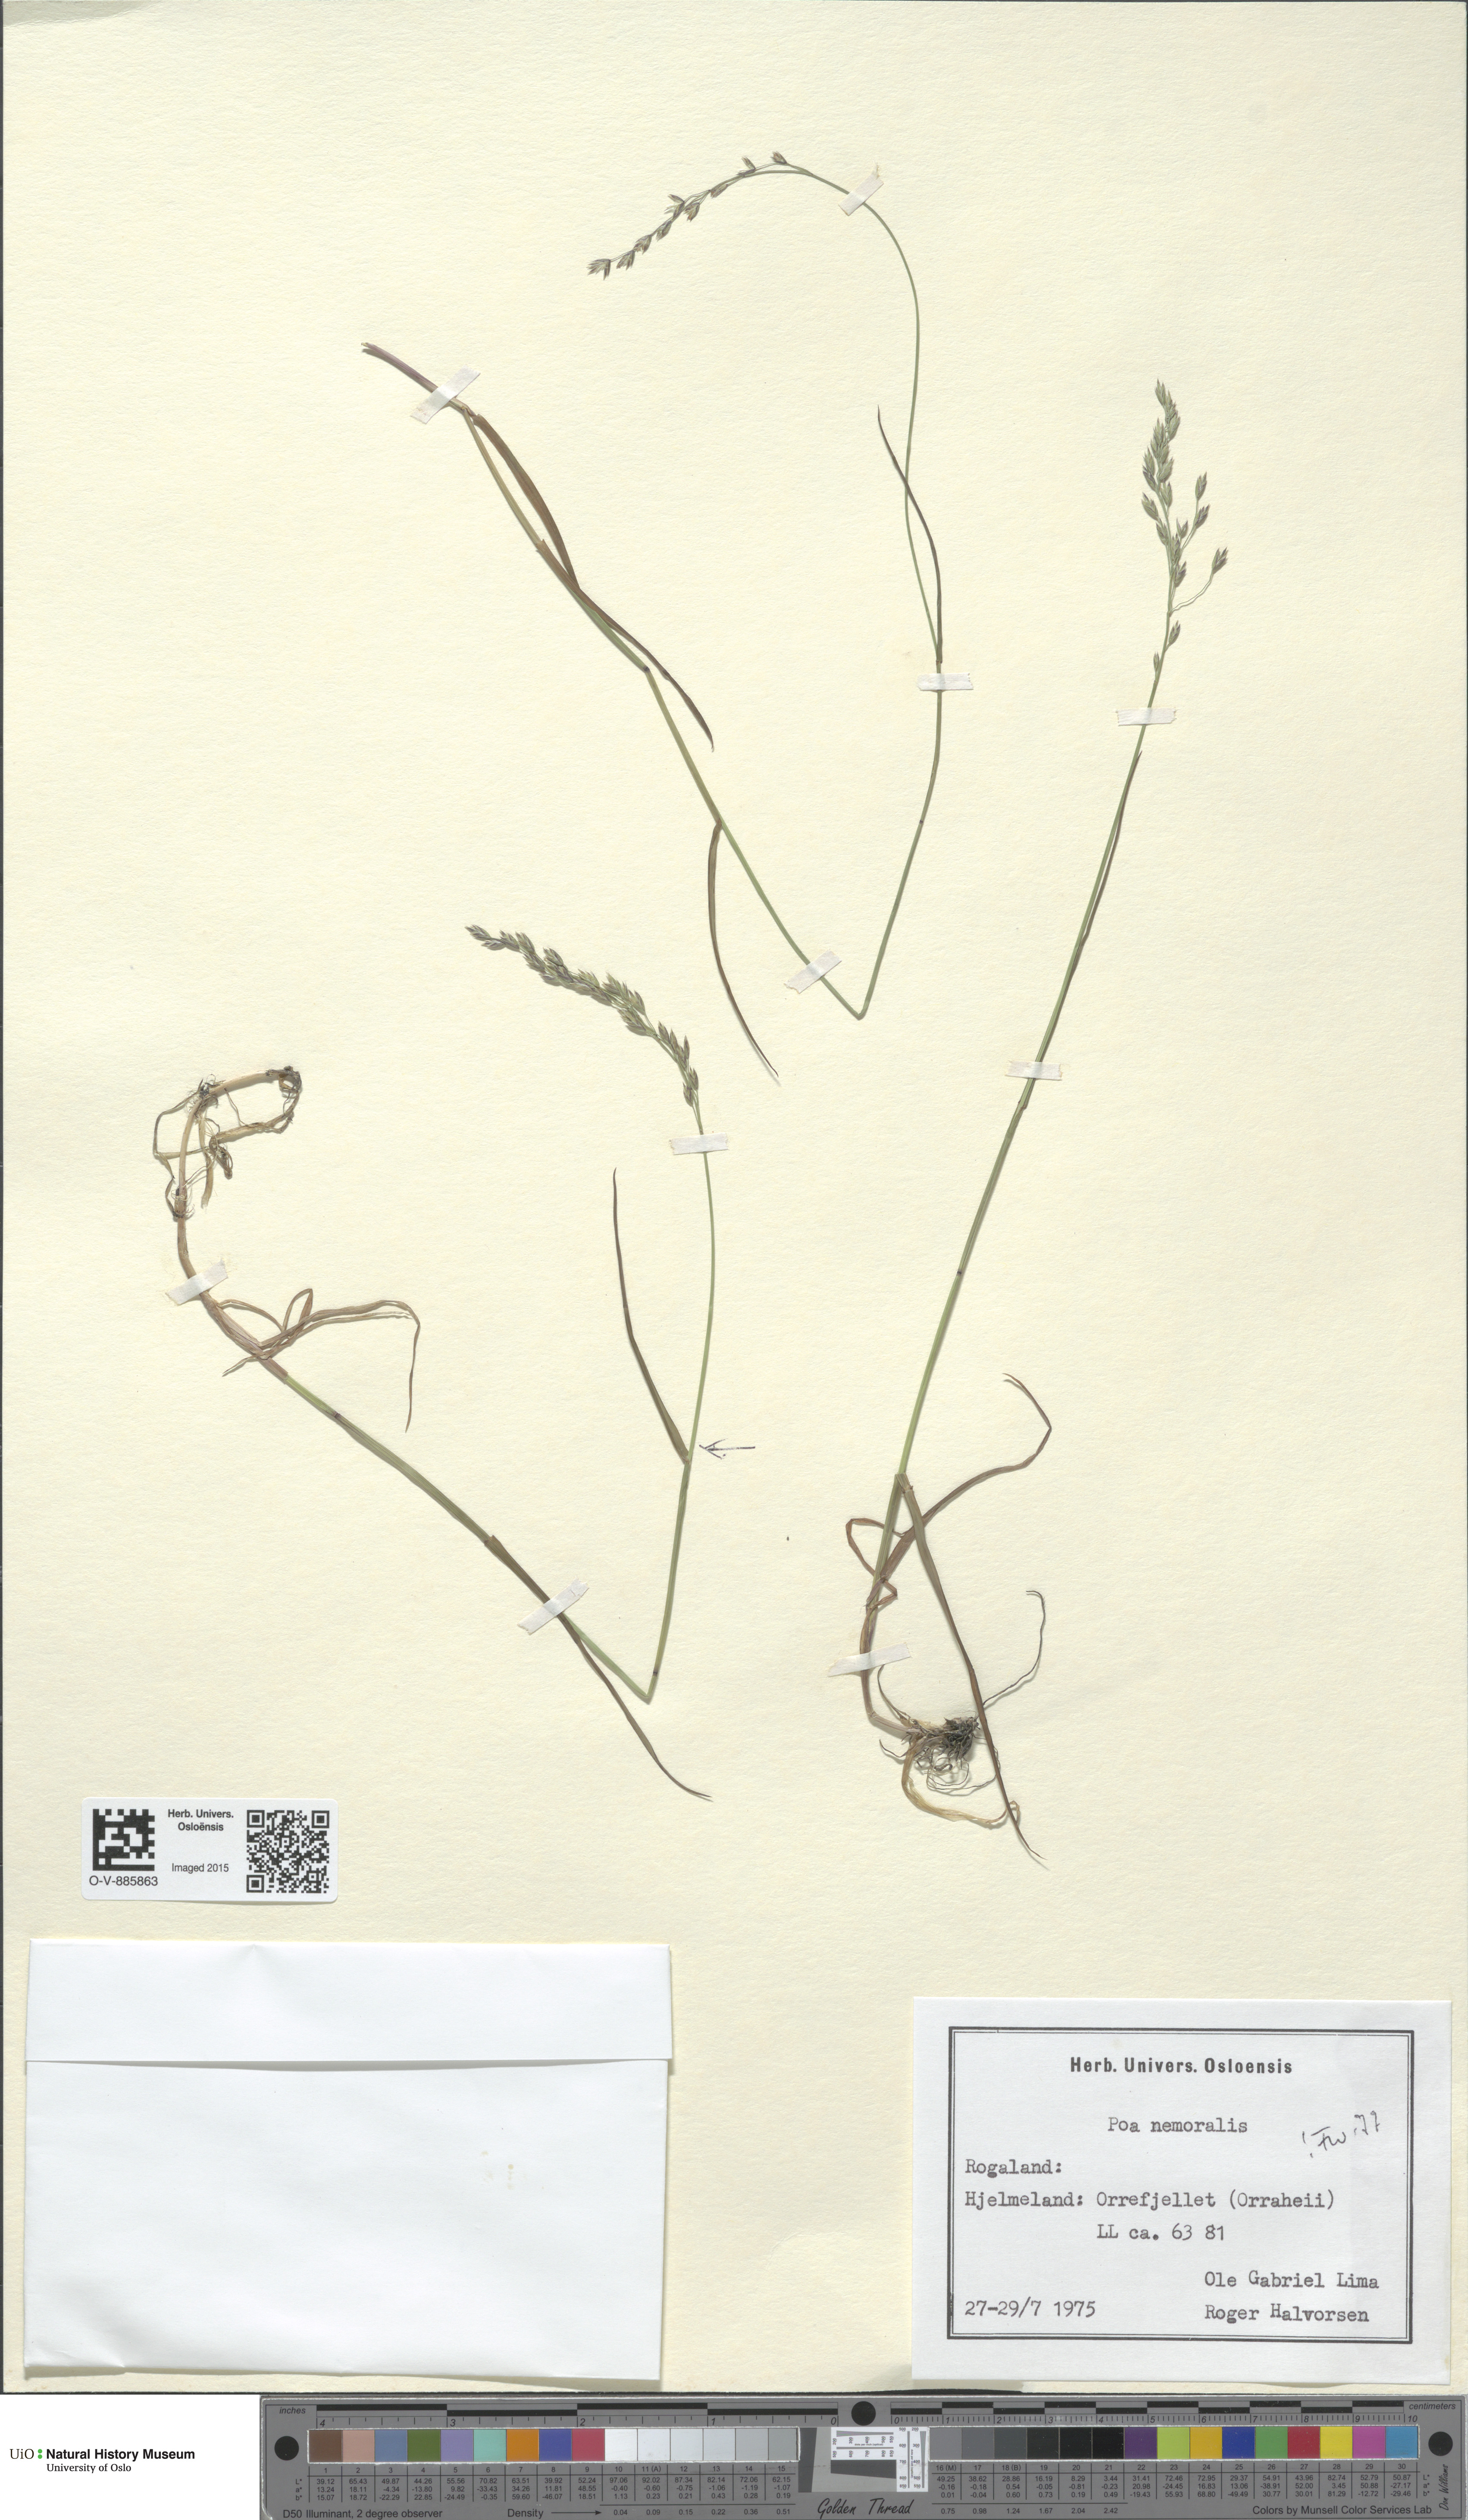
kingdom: Plantae
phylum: Tracheophyta
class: Liliopsida
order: Poales
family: Poaceae
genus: Poa
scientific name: Poa nemoralis
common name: Wood bluegrass
